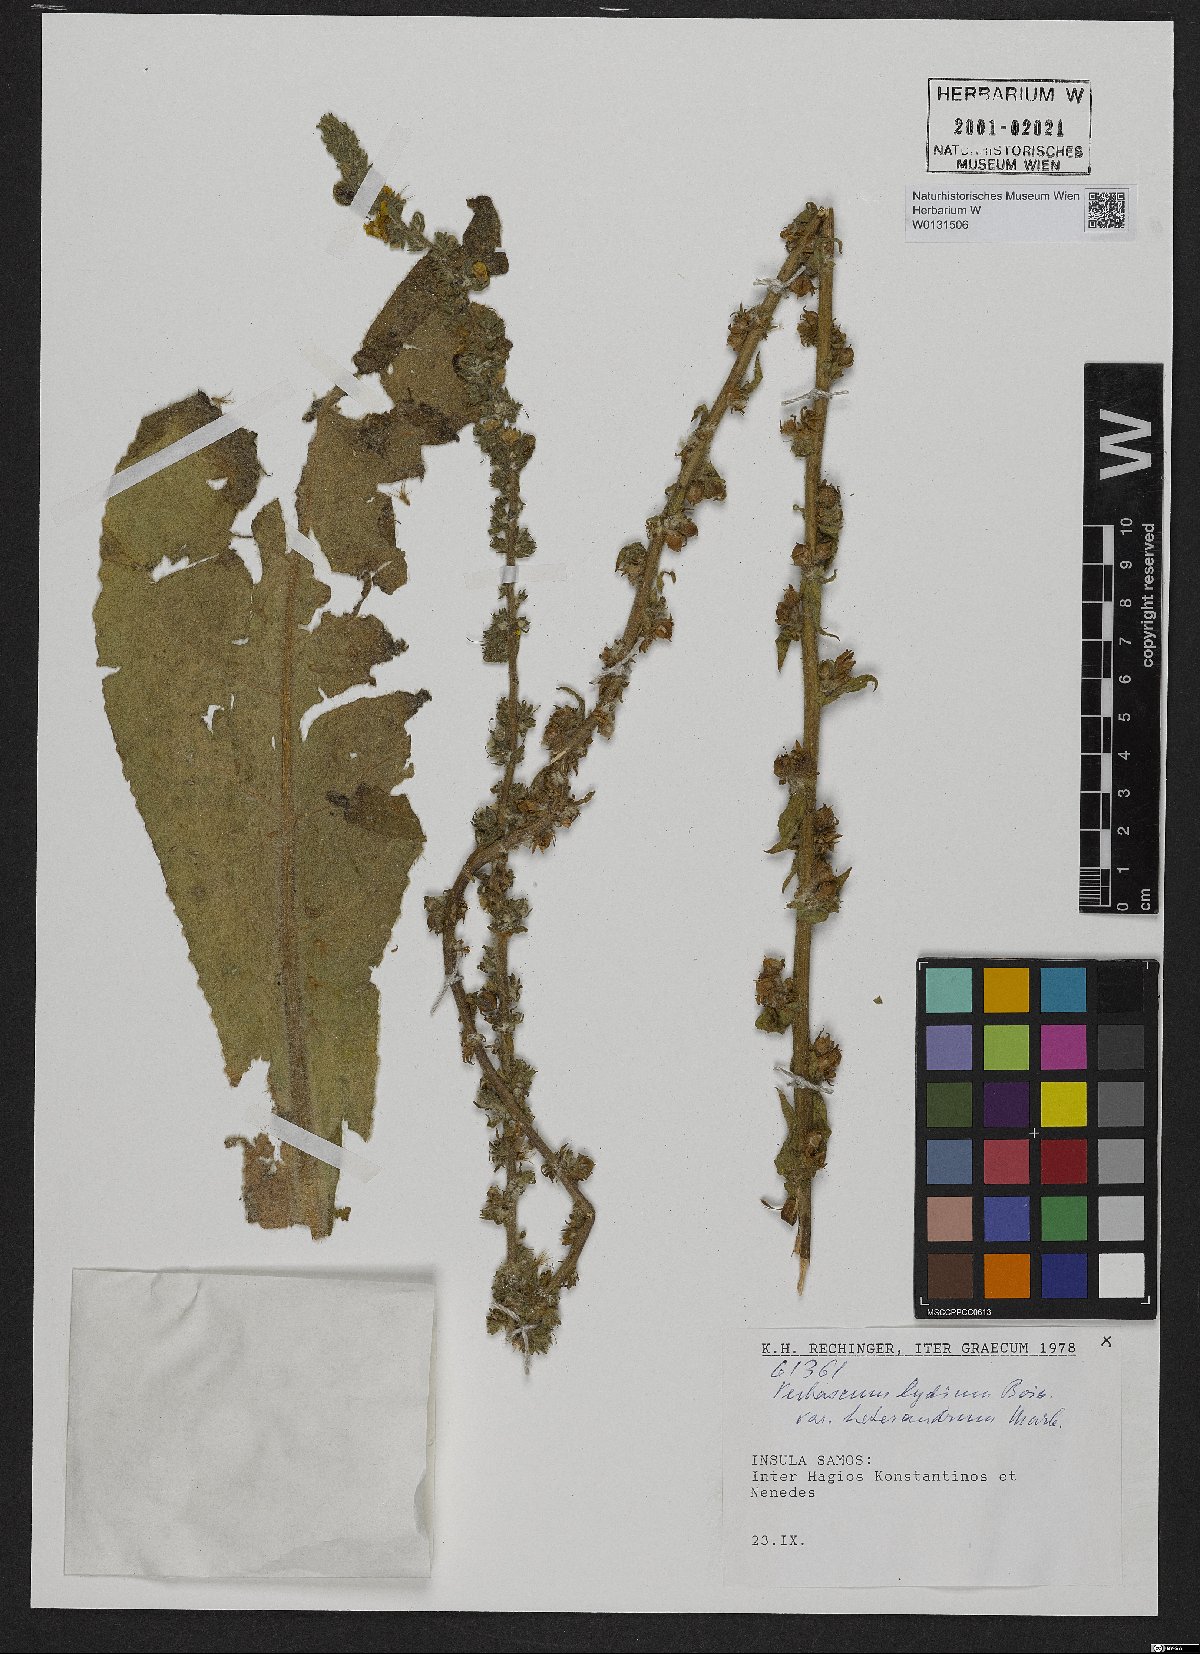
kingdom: Plantae
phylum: Tracheophyta
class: Magnoliopsida
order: Lamiales
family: Scrophulariaceae
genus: Verbascum
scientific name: Verbascum lydium
